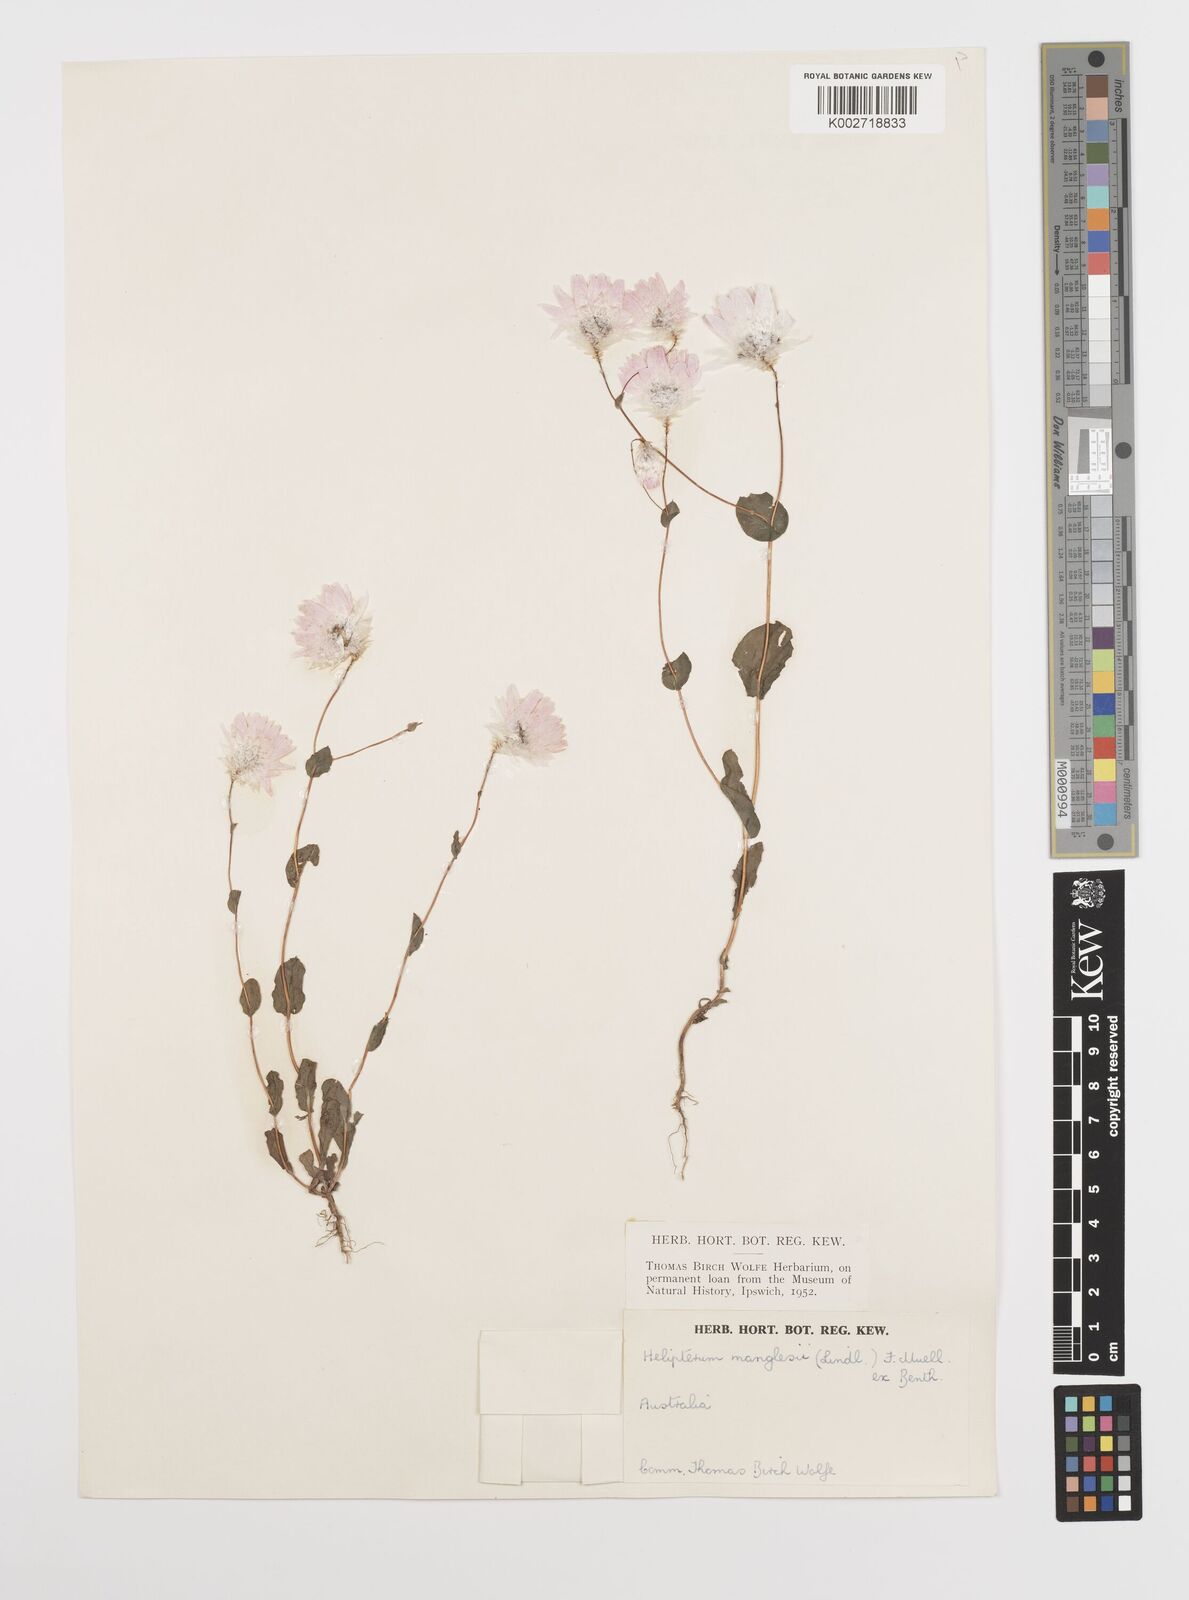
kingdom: Plantae
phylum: Tracheophyta
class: Magnoliopsida
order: Asterales
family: Asteraceae
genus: Rhodanthe
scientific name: Rhodanthe manglesii
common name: Pink sunray
